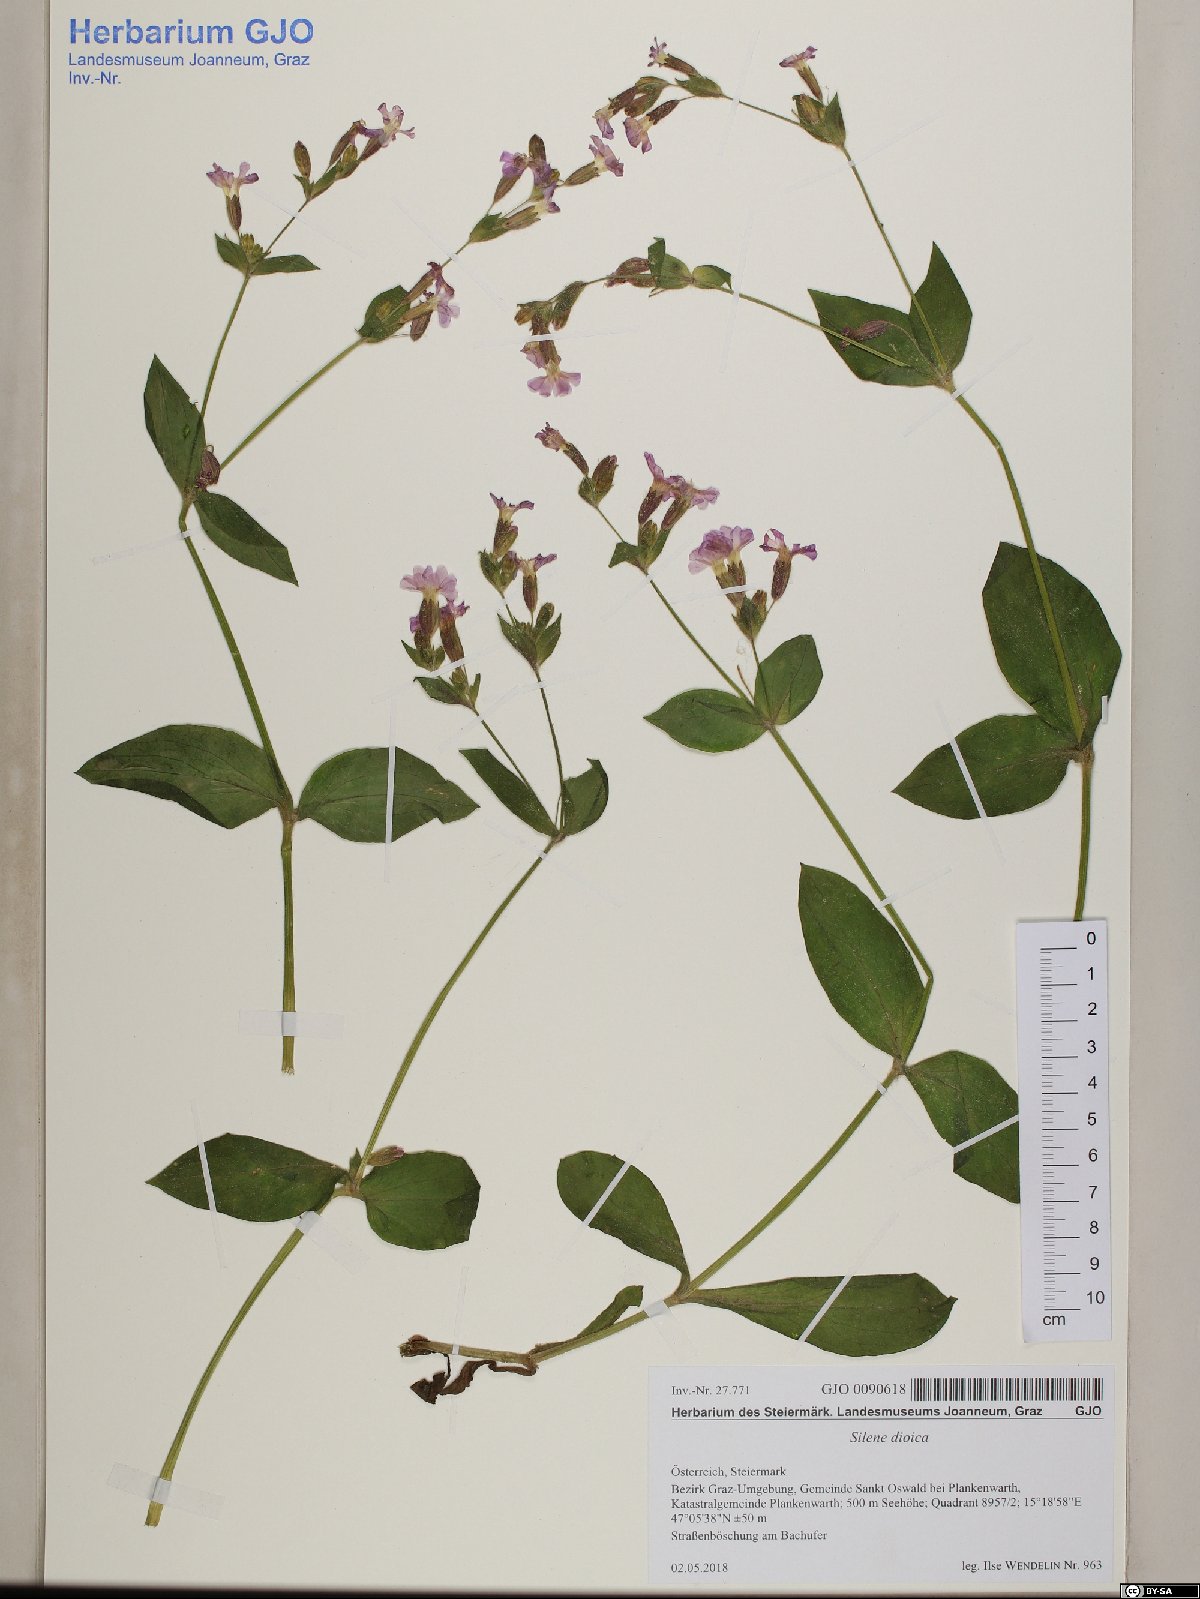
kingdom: Plantae
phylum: Tracheophyta
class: Magnoliopsida
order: Caryophyllales
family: Caryophyllaceae
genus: Silene
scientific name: Silene dioica
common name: Red campion
